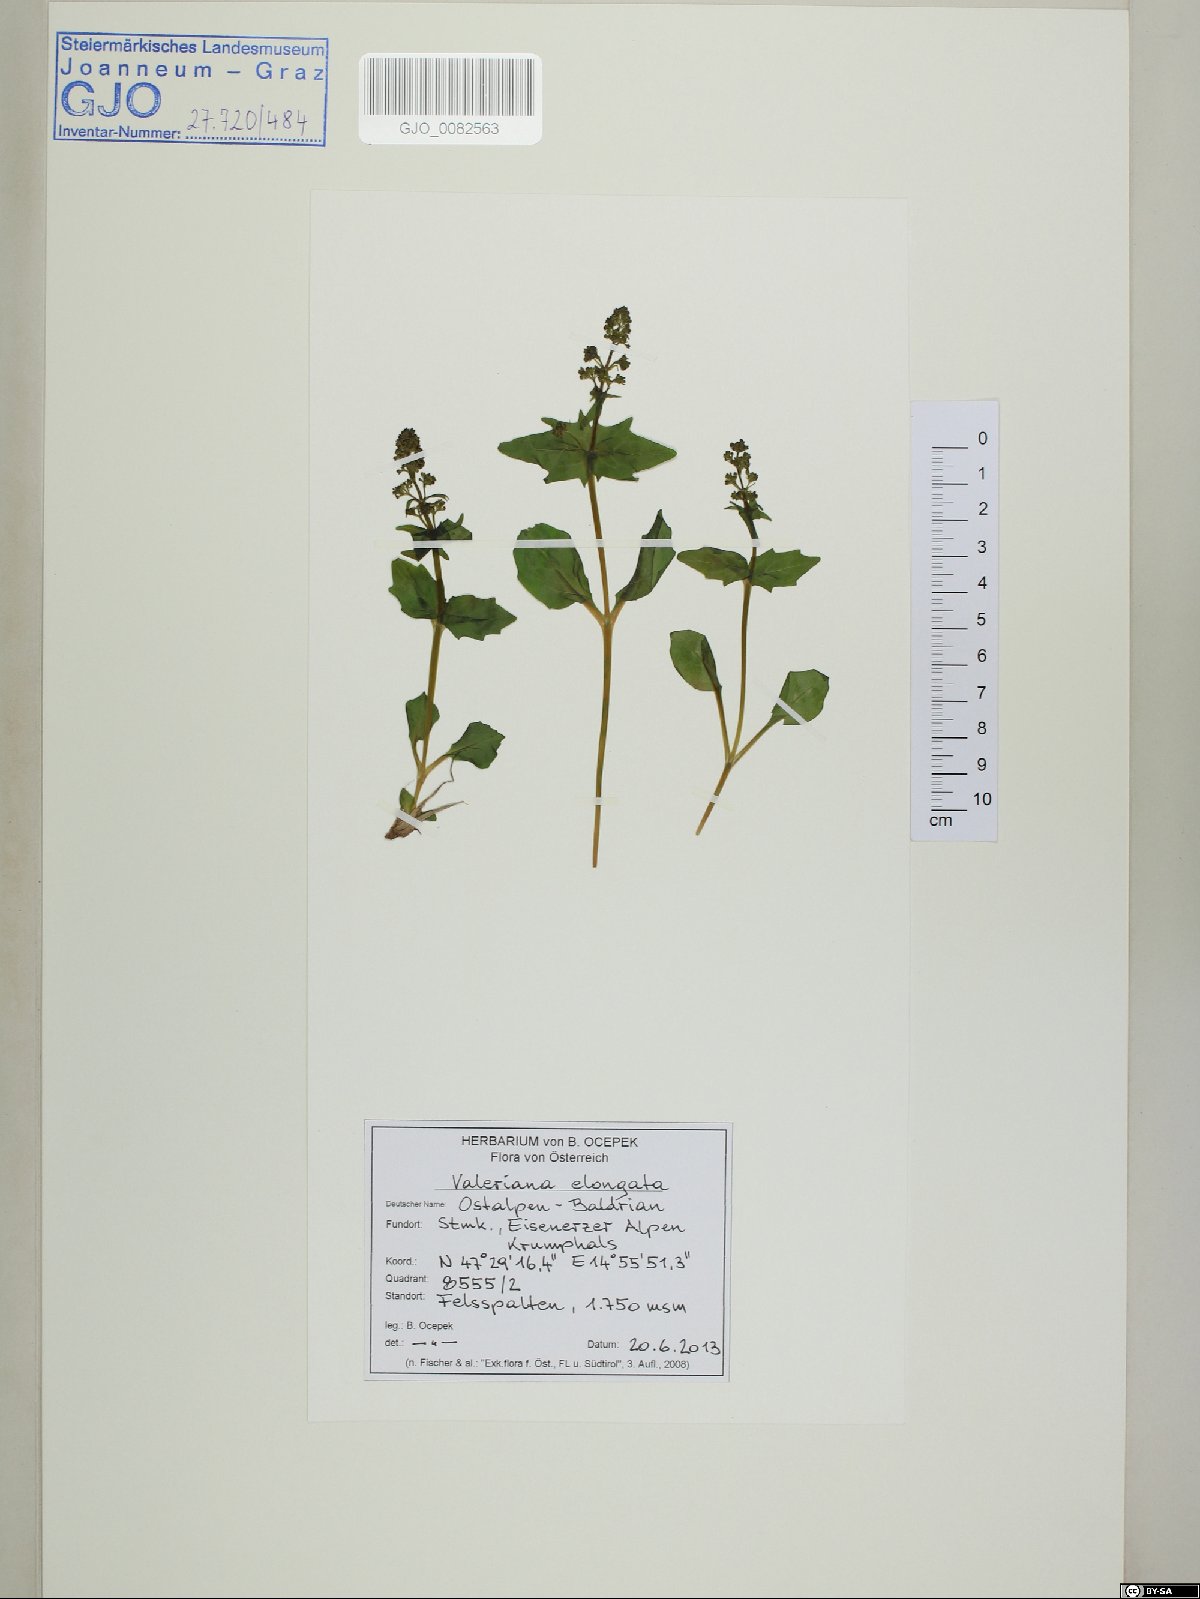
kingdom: Plantae
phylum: Tracheophyta
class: Magnoliopsida
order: Dipsacales
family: Caprifoliaceae
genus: Valeriana
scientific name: Valeriana elongata
